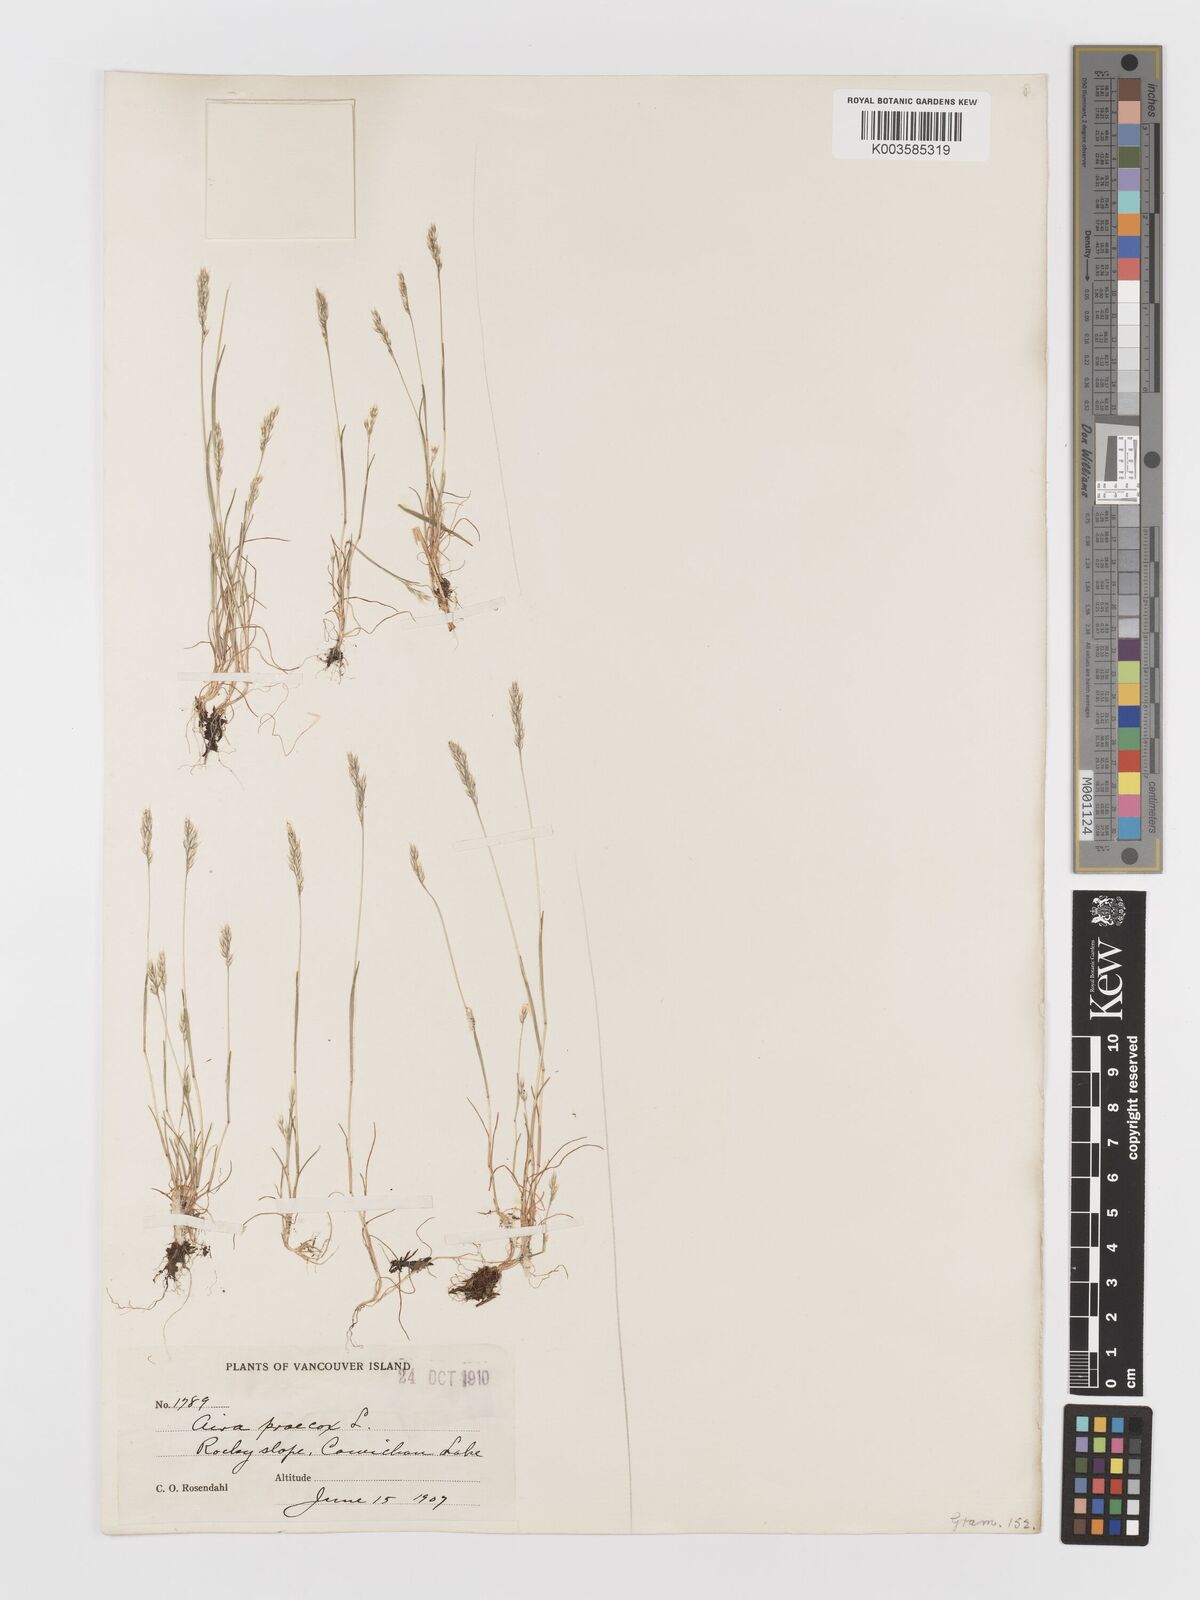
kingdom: Plantae
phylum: Tracheophyta
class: Liliopsida
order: Poales
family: Poaceae
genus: Aira
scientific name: Aira praecox
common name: Early hair-grass
